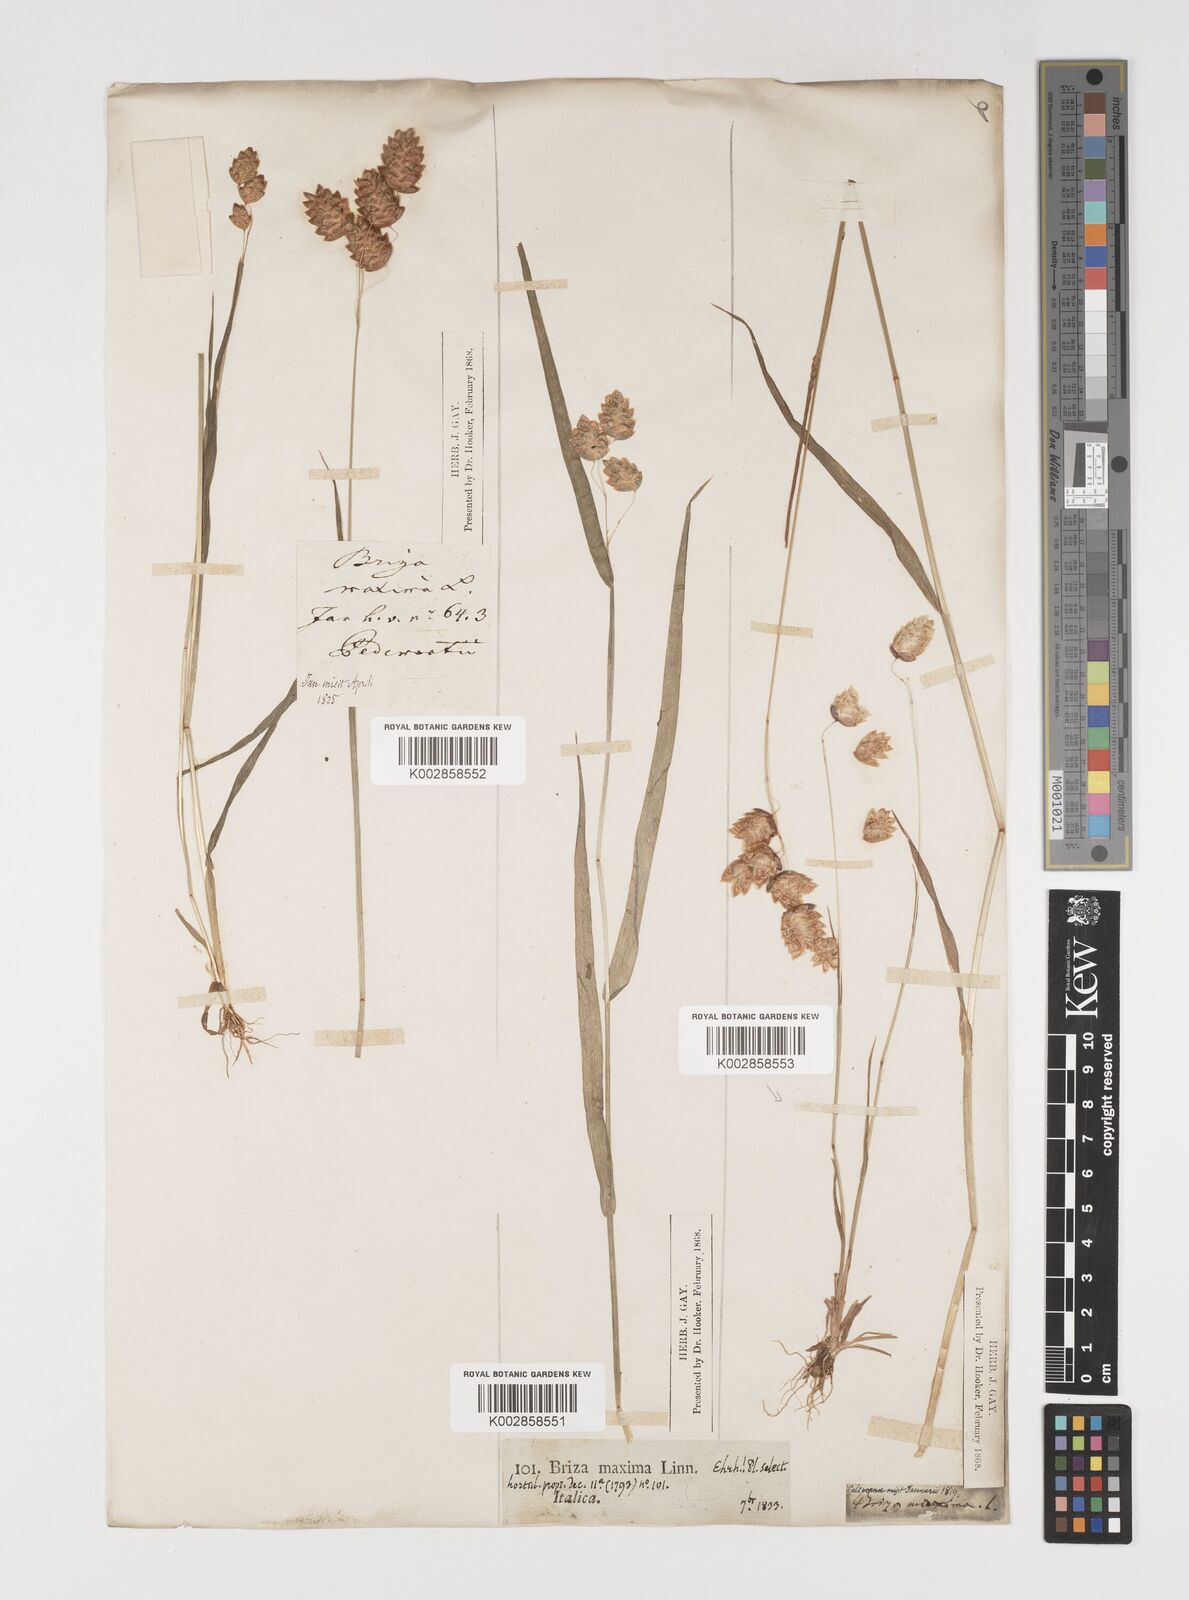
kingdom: Plantae
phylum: Tracheophyta
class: Liliopsida
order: Poales
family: Poaceae
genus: Briza
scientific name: Briza maxima
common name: Big quakinggrass
